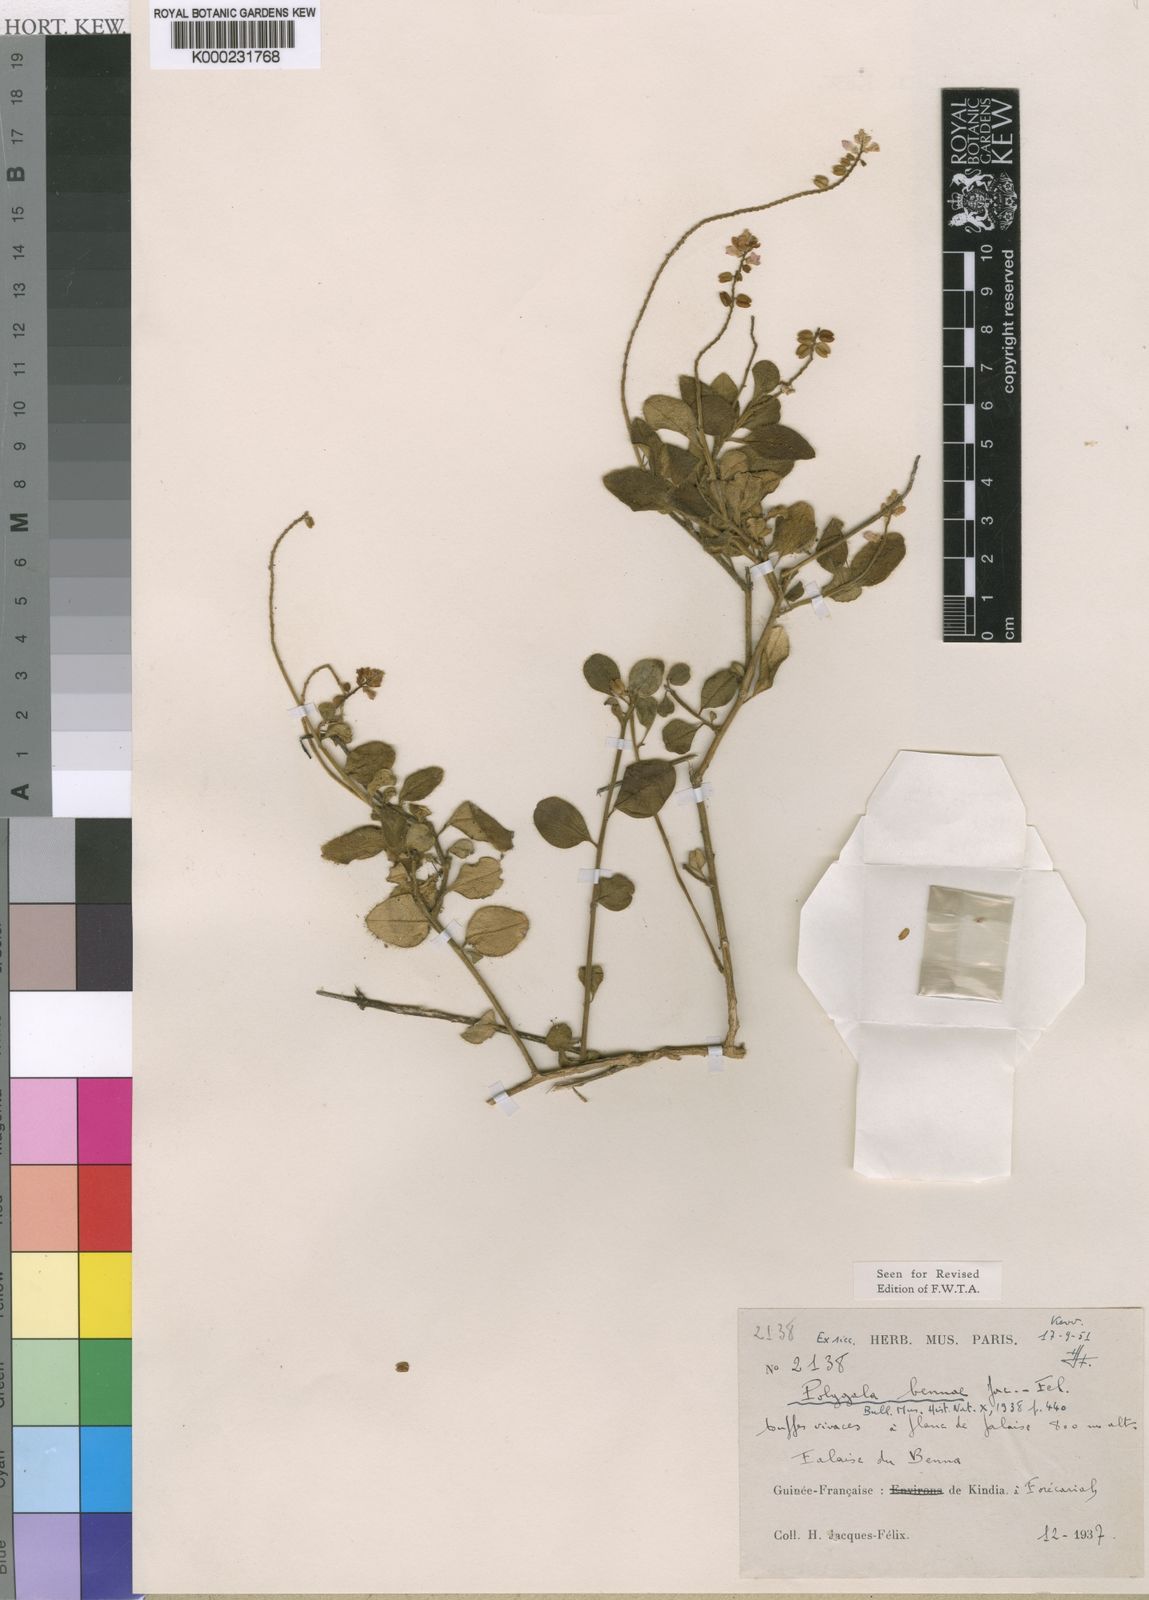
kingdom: Plantae
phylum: Tracheophyta
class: Magnoliopsida
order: Fabales
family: Polygalaceae
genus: Polygala
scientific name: Polygala bennae
